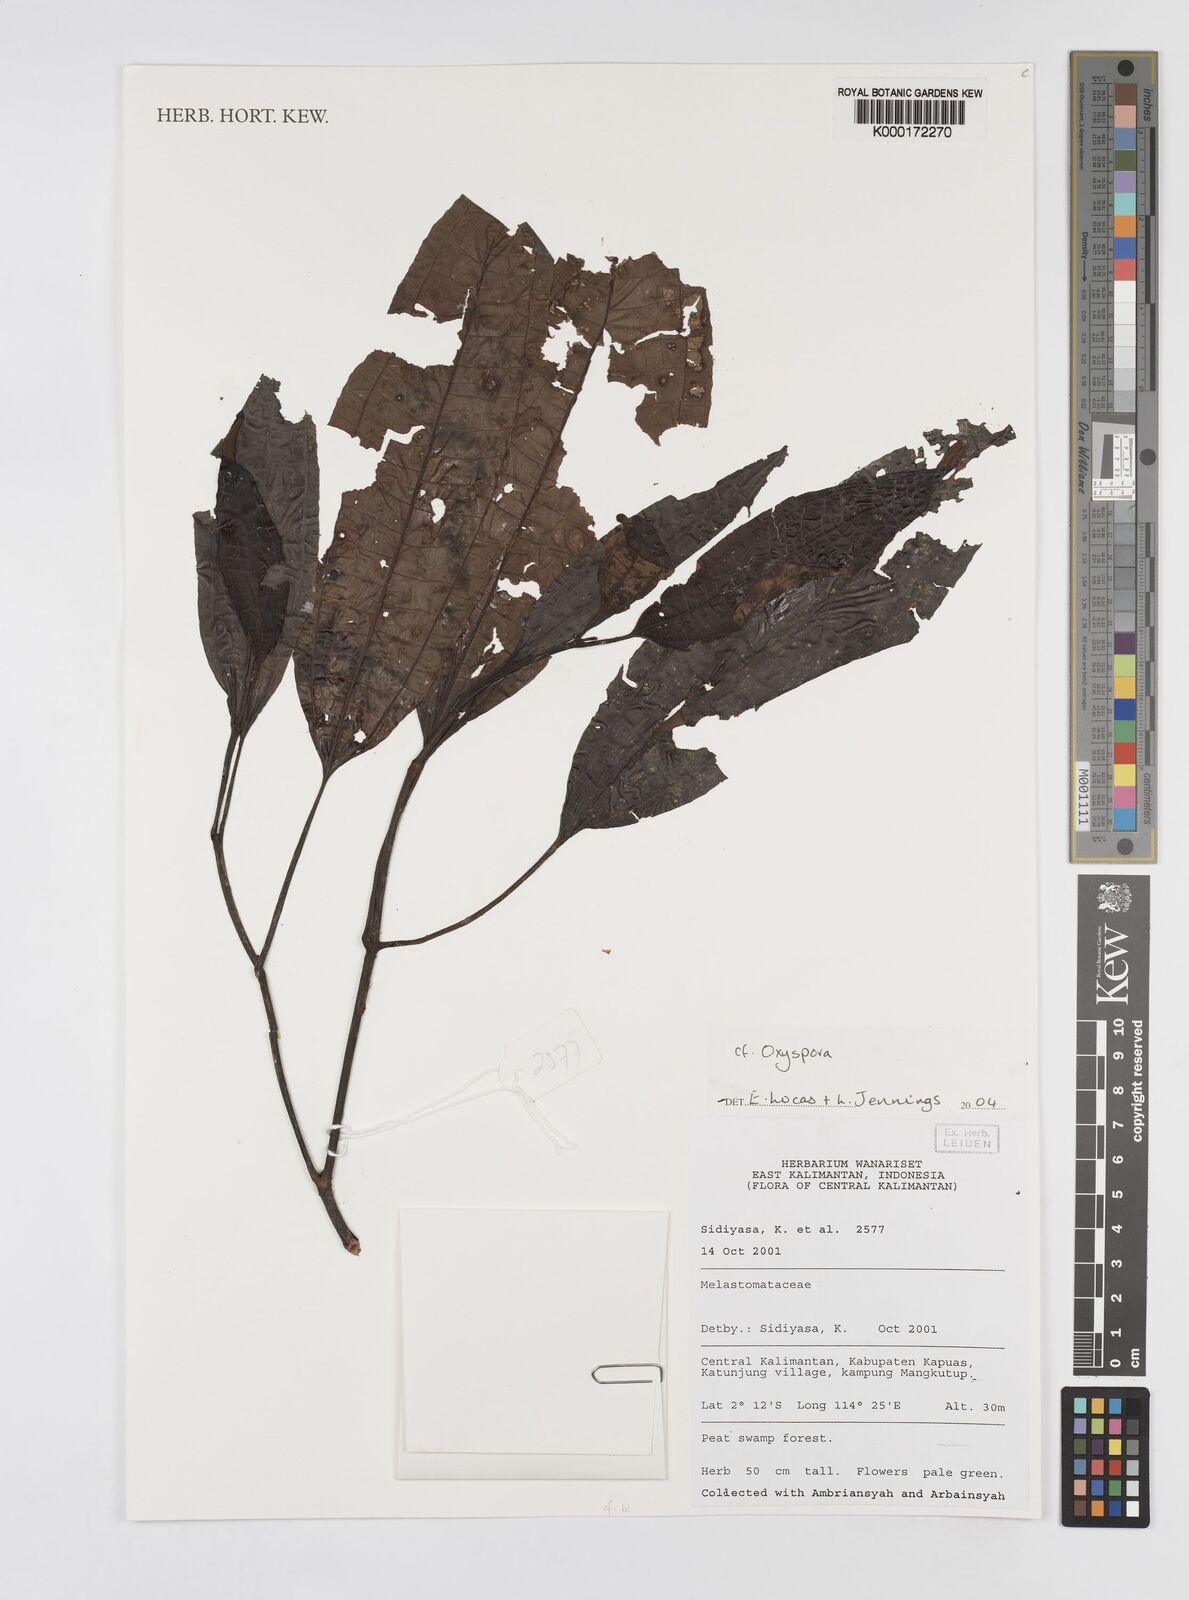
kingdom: Plantae
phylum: Tracheophyta
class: Magnoliopsida
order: Myrtales
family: Melastomataceae
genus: Oxyspora
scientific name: Oxyspora
